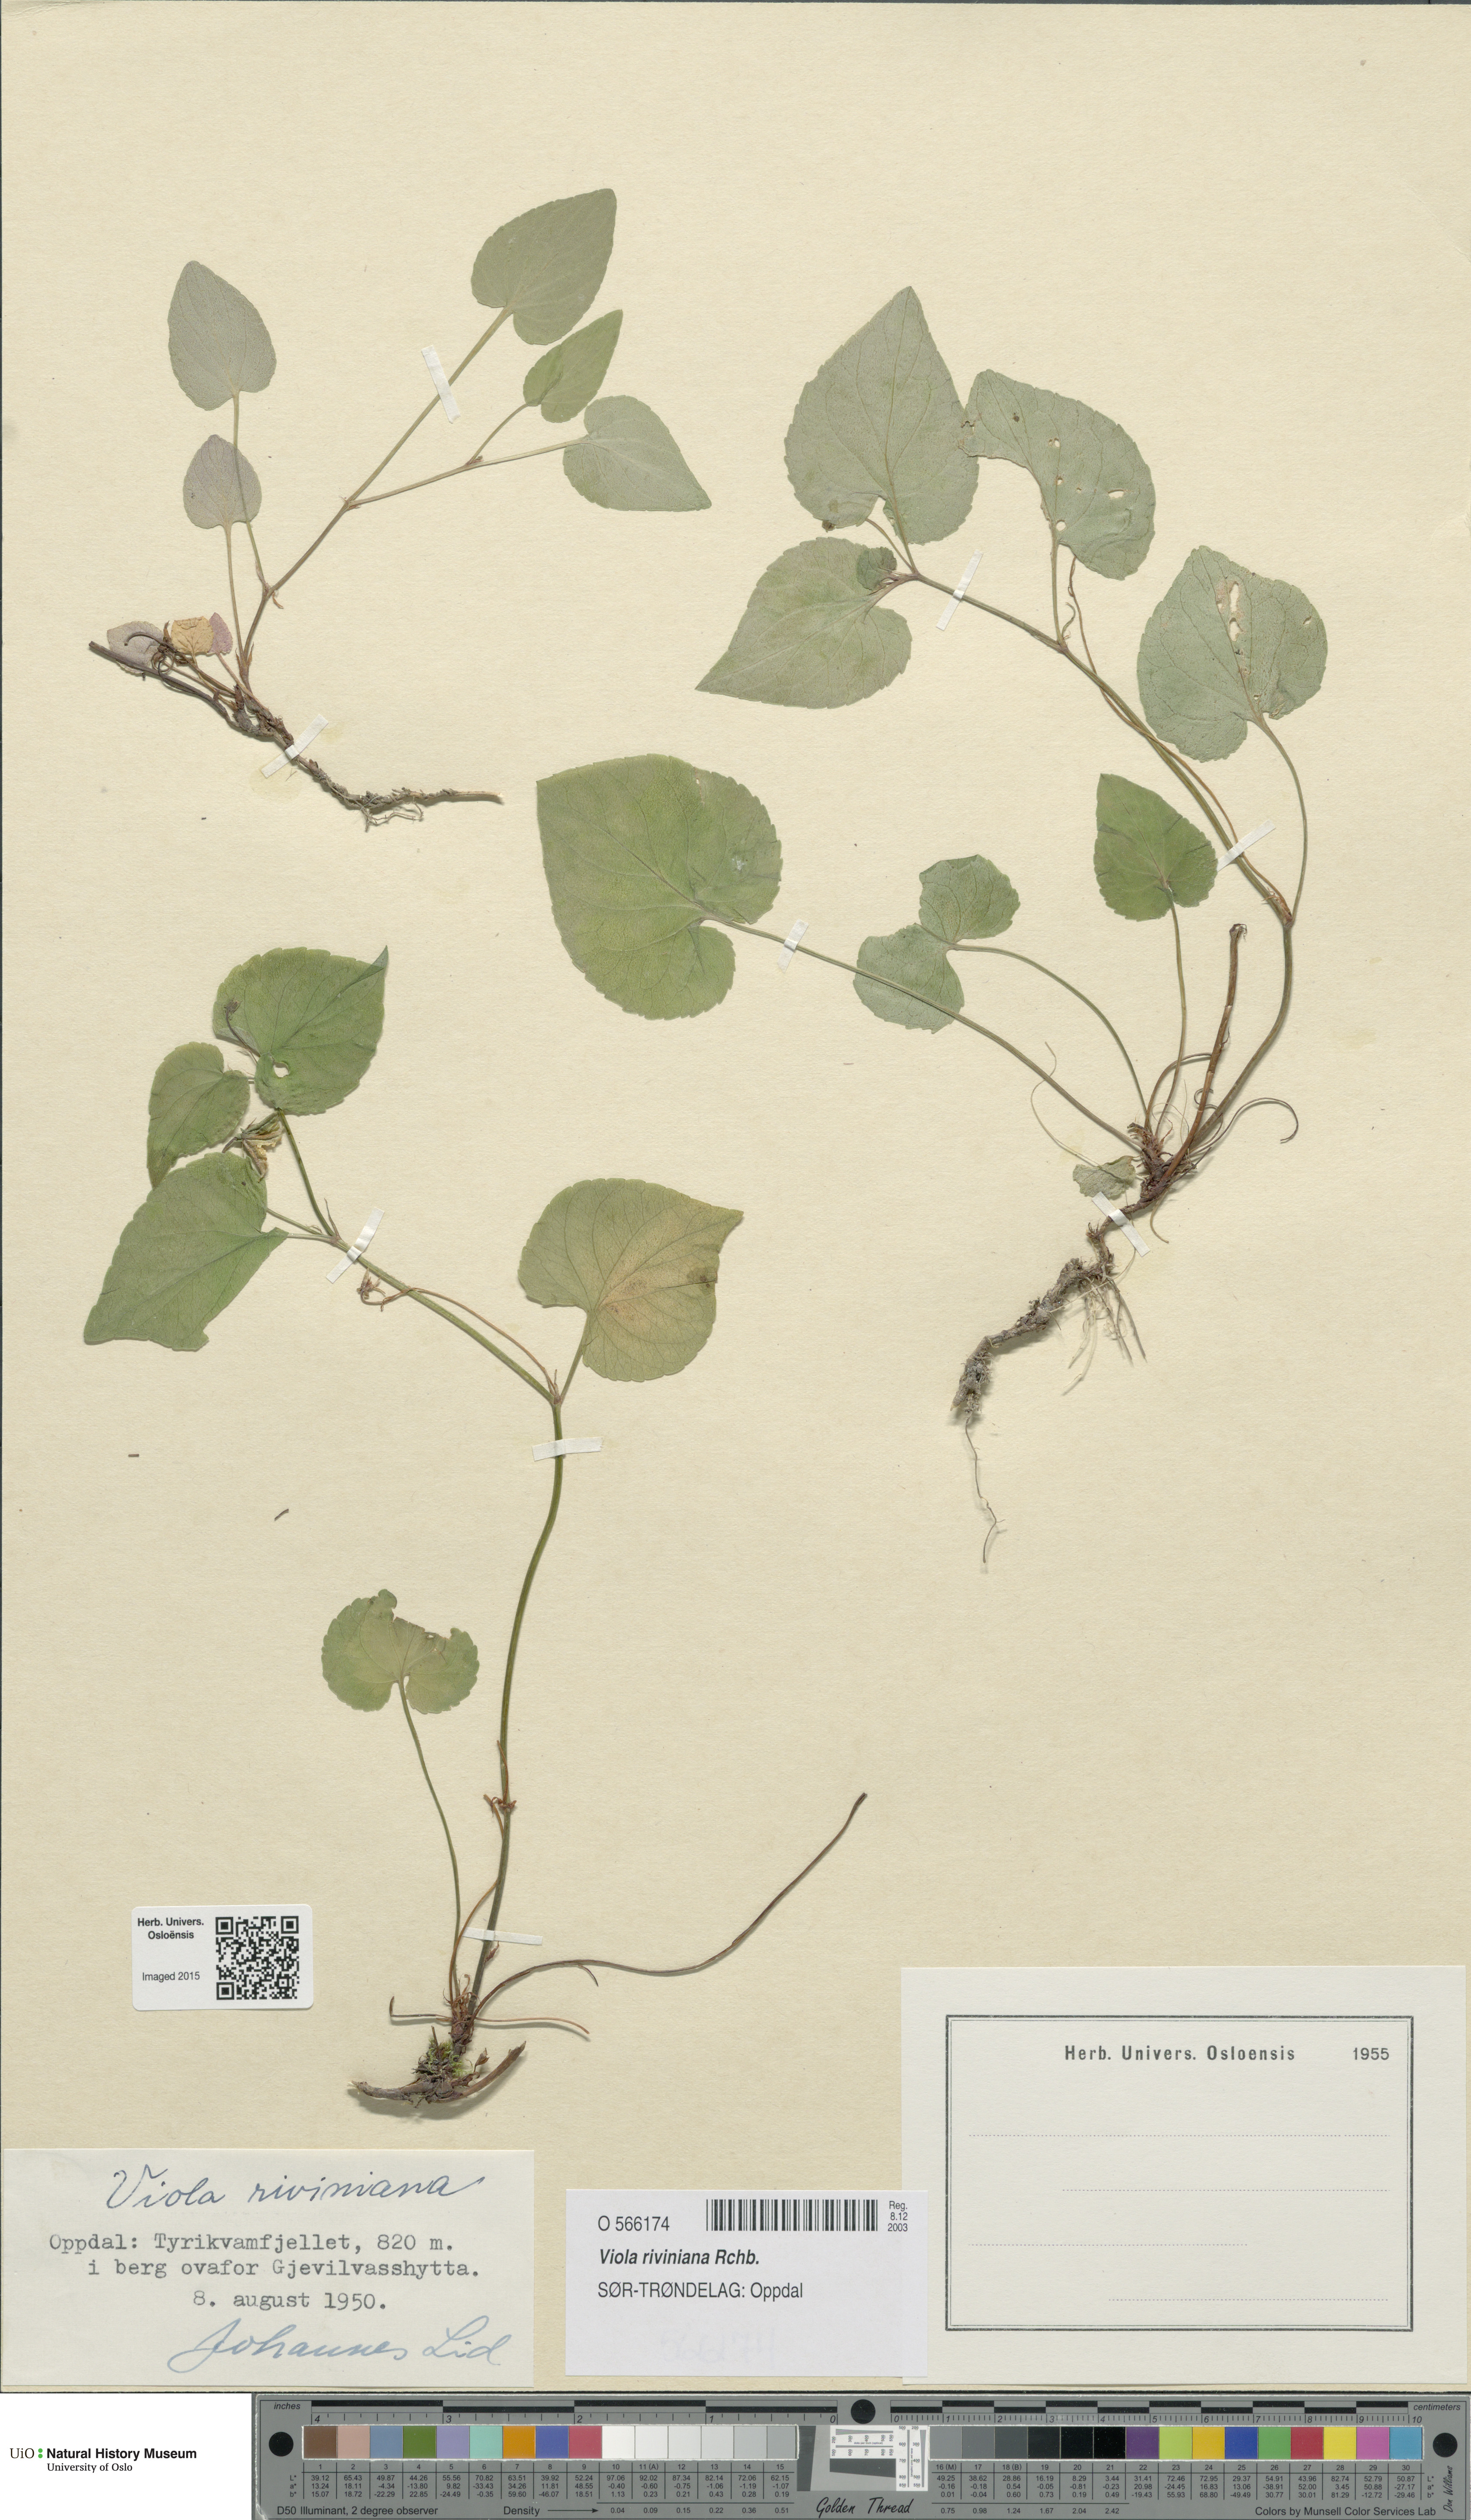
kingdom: Plantae
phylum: Tracheophyta
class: Magnoliopsida
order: Malpighiales
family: Violaceae
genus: Viola
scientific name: Viola riviniana
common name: Common dog-violet
